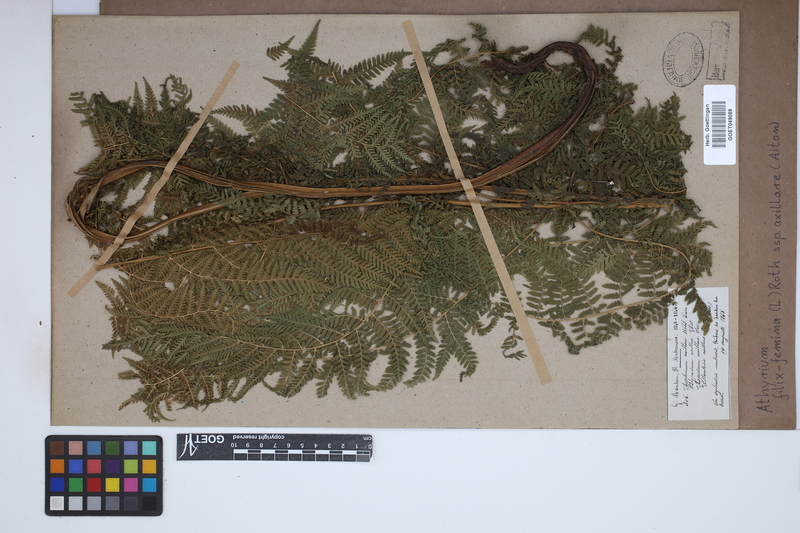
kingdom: Plantae
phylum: Tracheophyta
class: Polypodiopsida
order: Polypodiales
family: Athyriaceae
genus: Athyrium
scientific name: Athyrium filix-femina
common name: Lady fern
